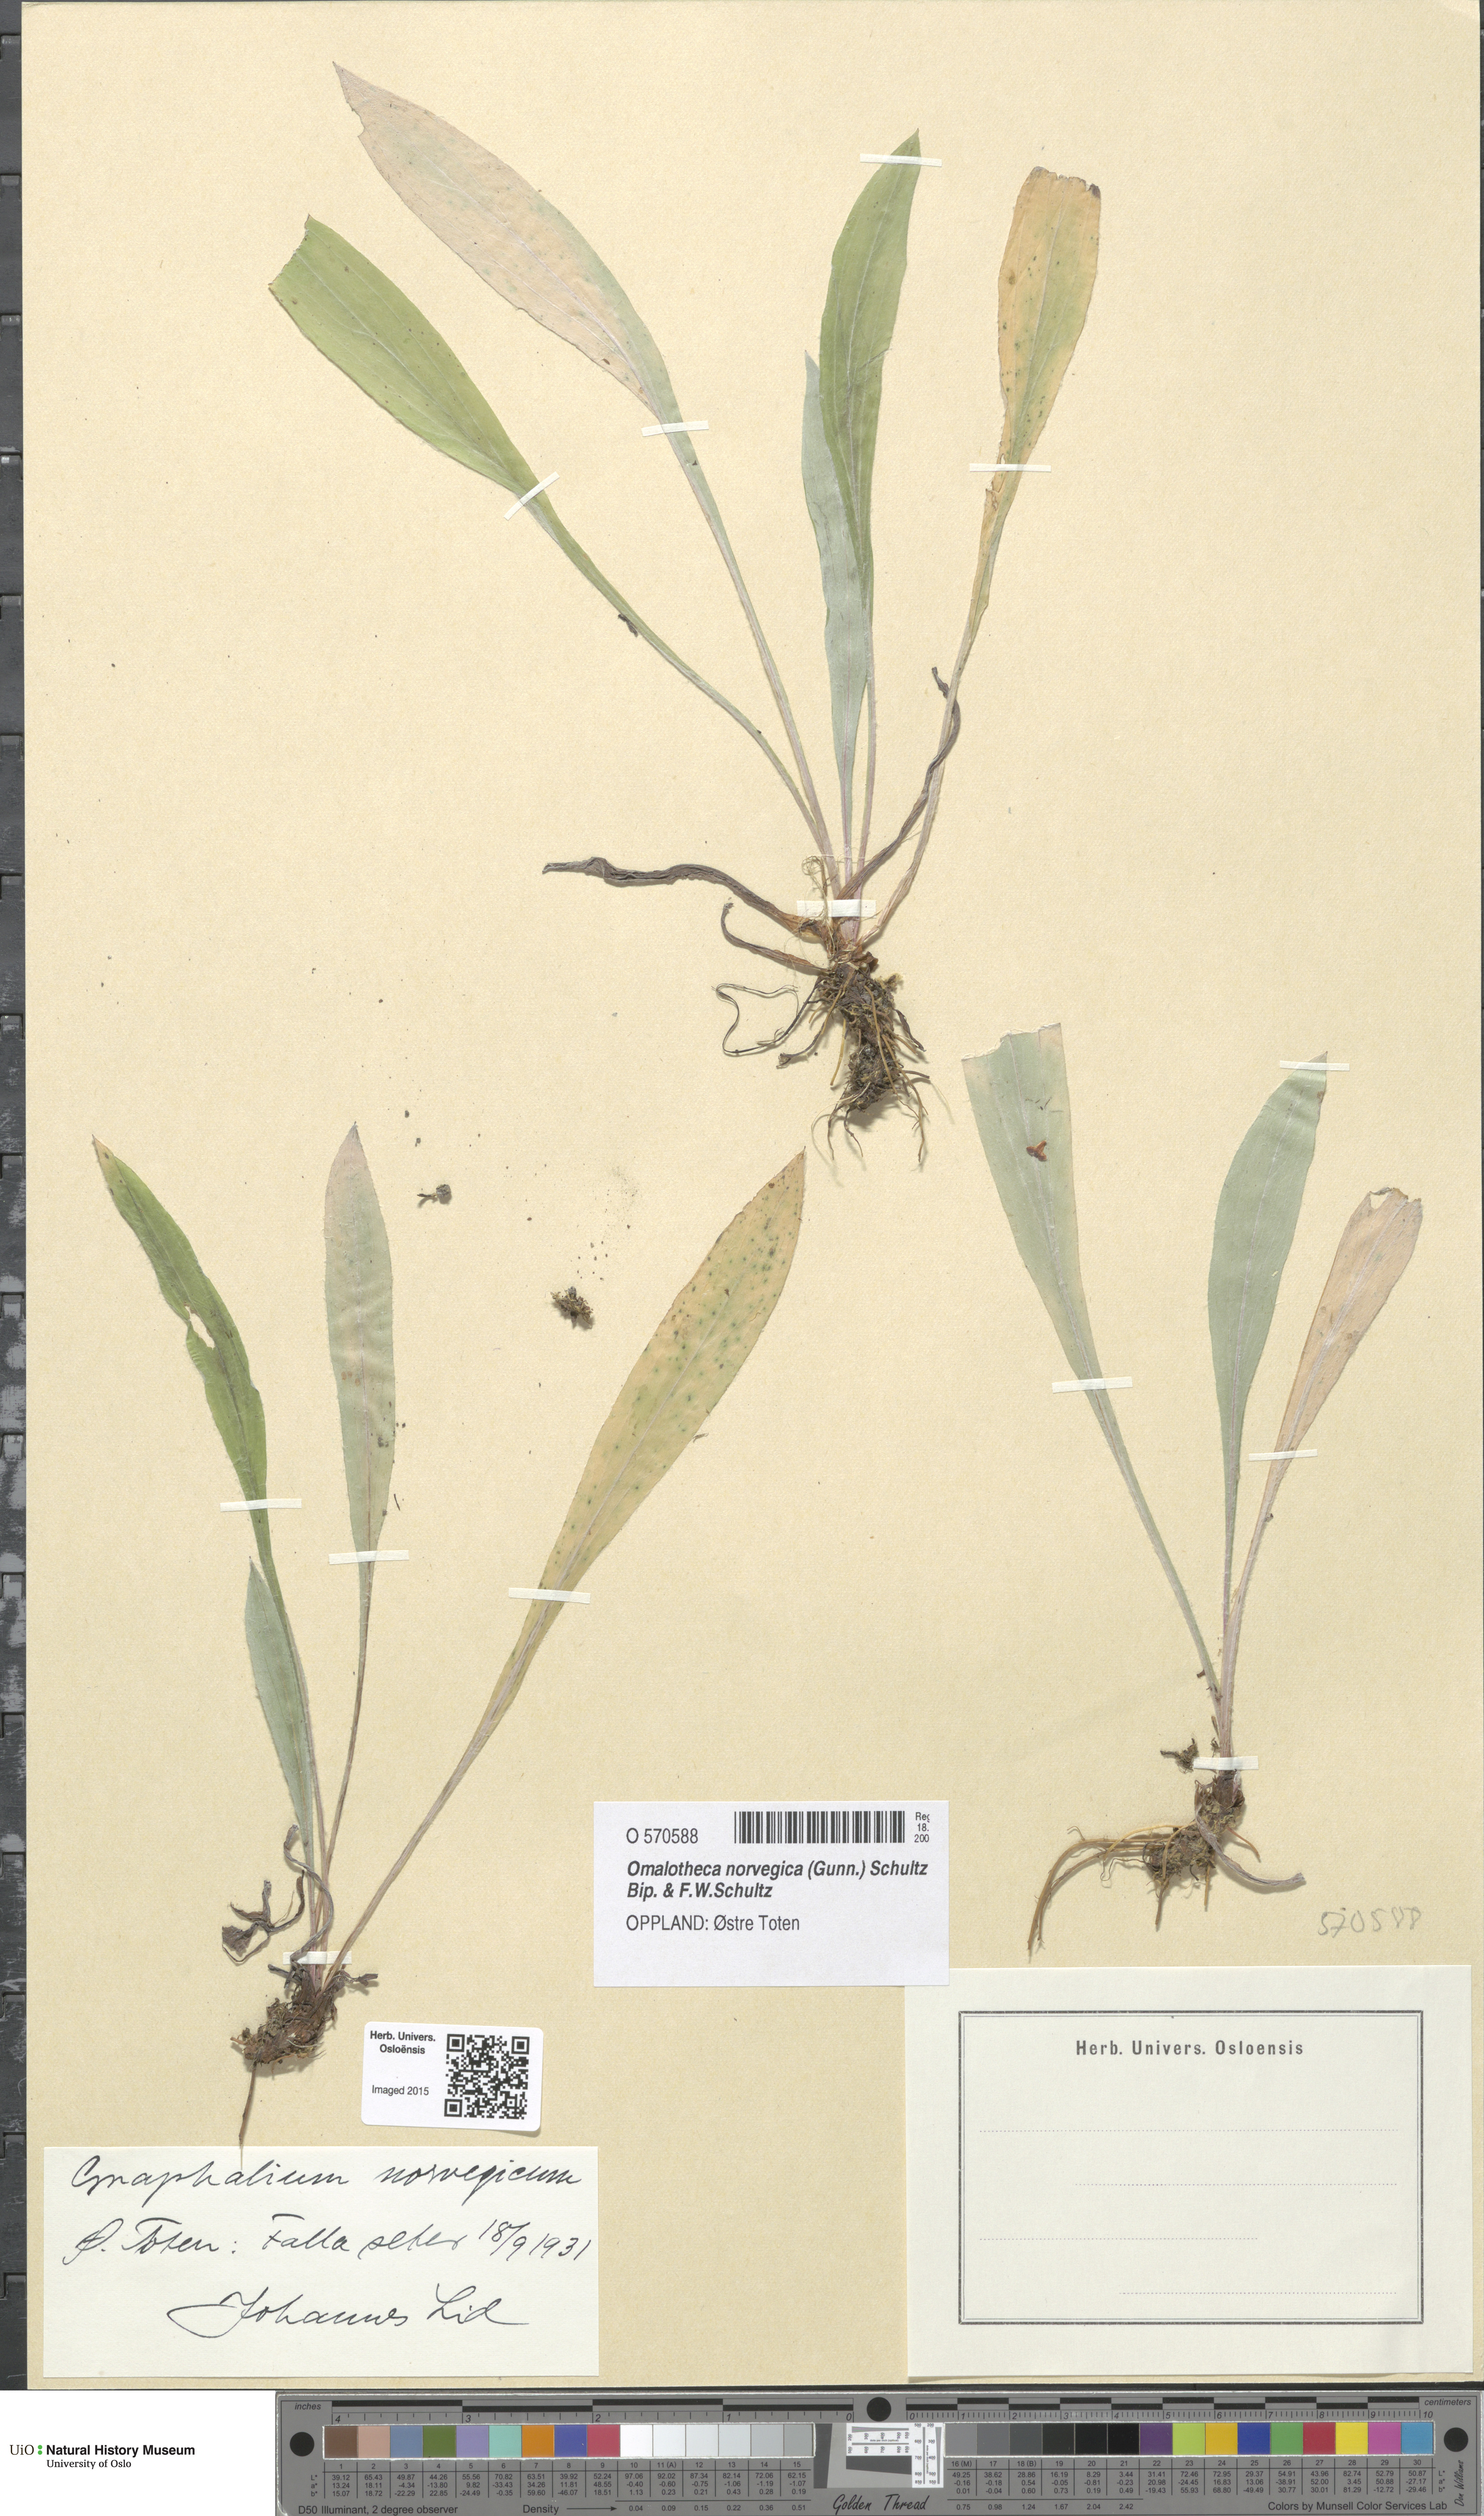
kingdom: Plantae
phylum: Tracheophyta
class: Magnoliopsida
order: Asterales
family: Asteraceae
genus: Omalotheca
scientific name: Omalotheca norvegica
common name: Norwegian arctic-cudweed
